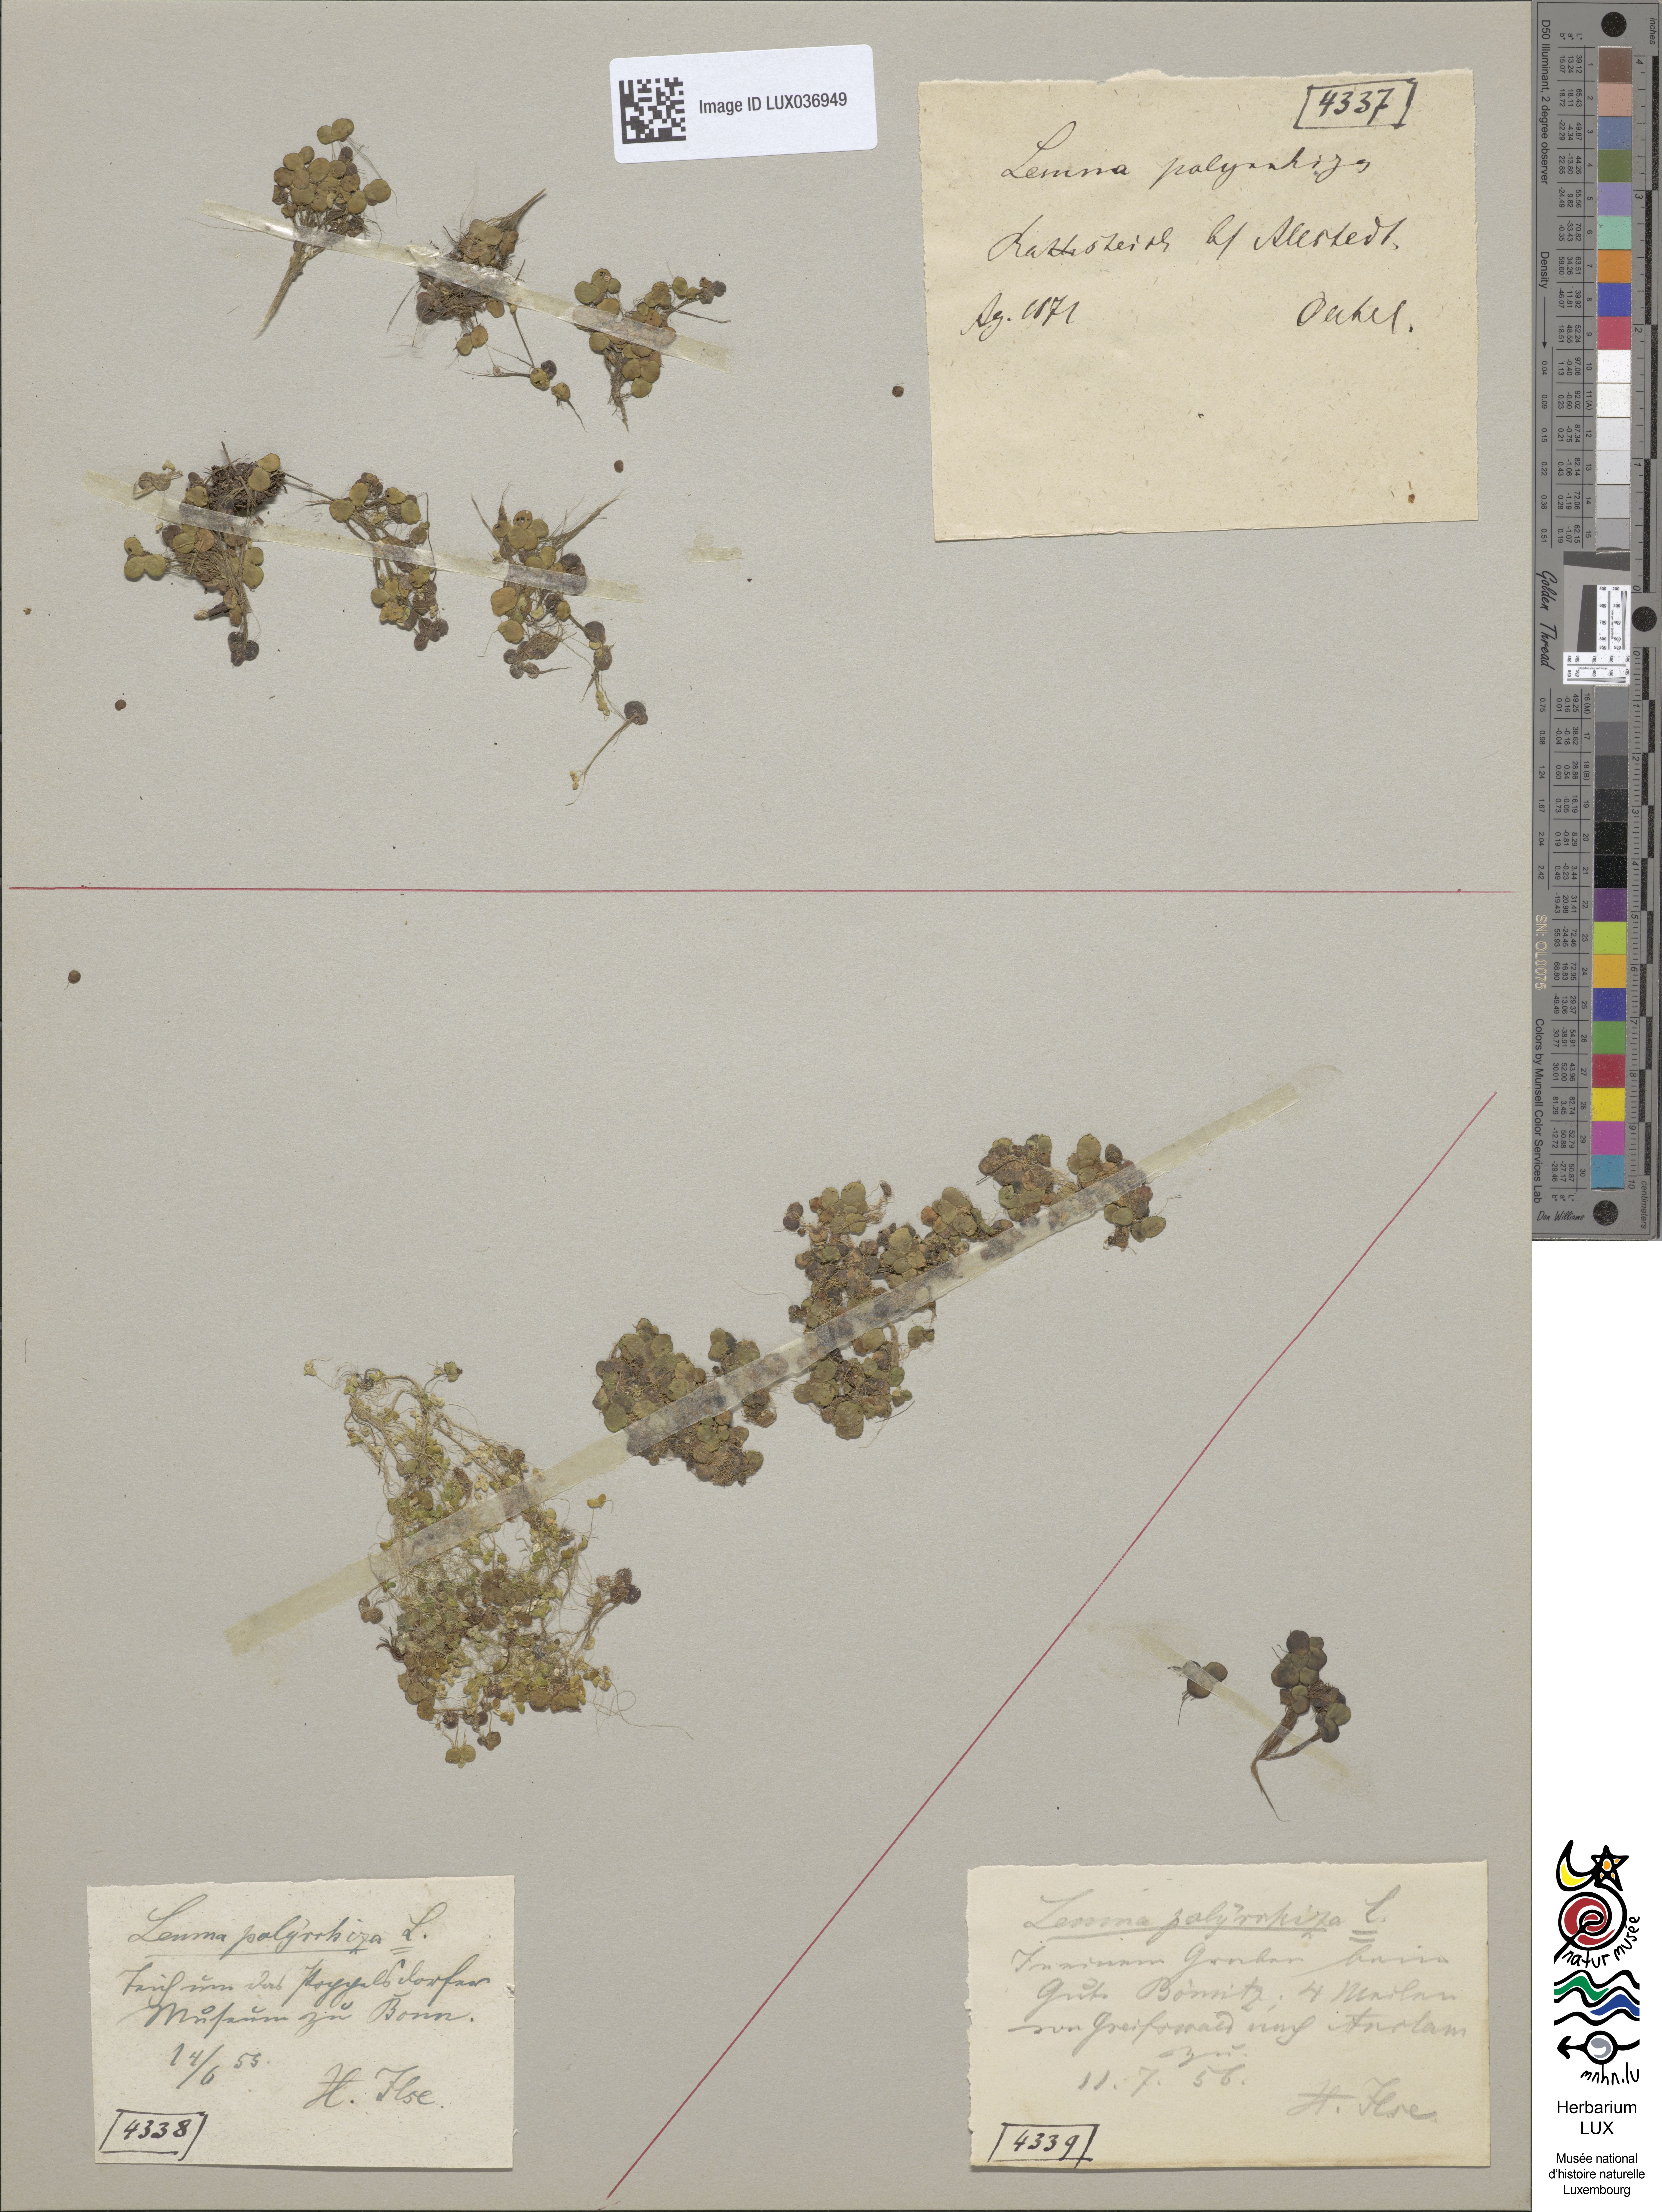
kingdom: Plantae
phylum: Tracheophyta
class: Liliopsida
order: Alismatales
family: Araceae
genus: Spirodela
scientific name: Spirodela polyrhiza
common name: Great duckweed
